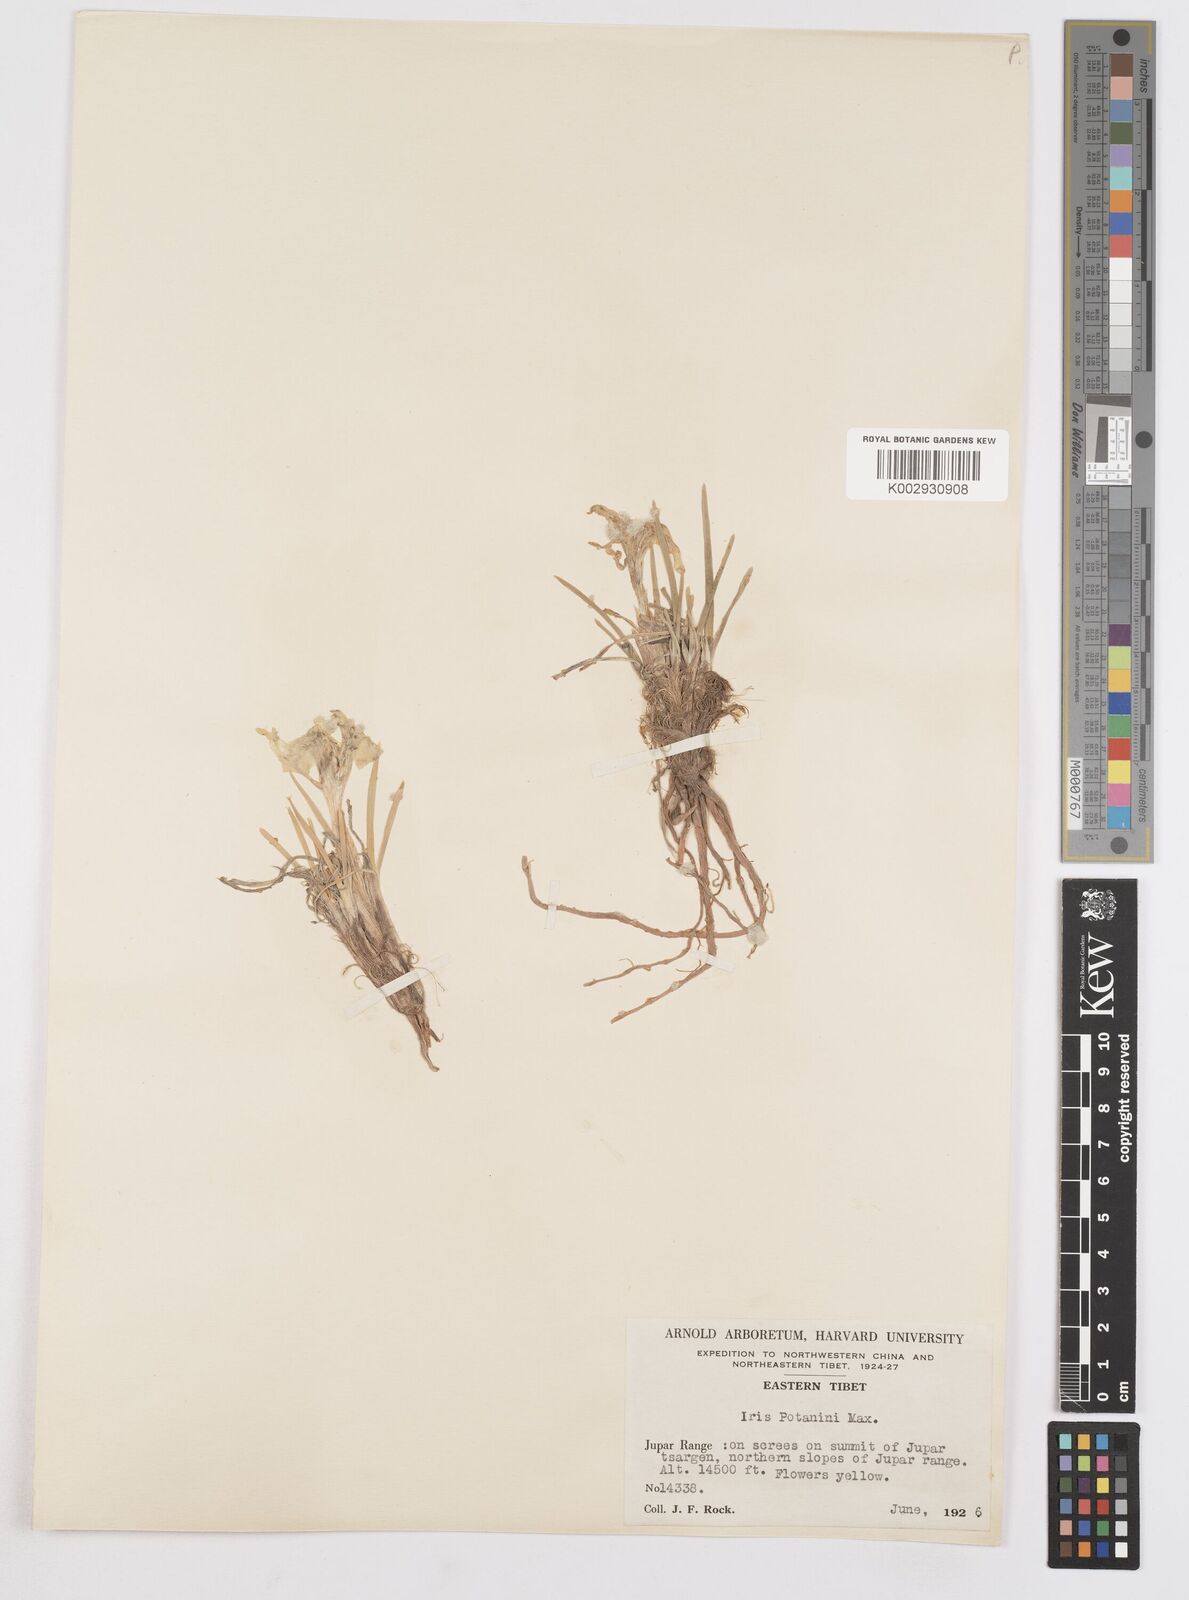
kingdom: Plantae
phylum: Tracheophyta
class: Liliopsida
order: Asparagales
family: Iridaceae
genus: Iris
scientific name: Iris potaninii
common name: Curl-sheath iris
